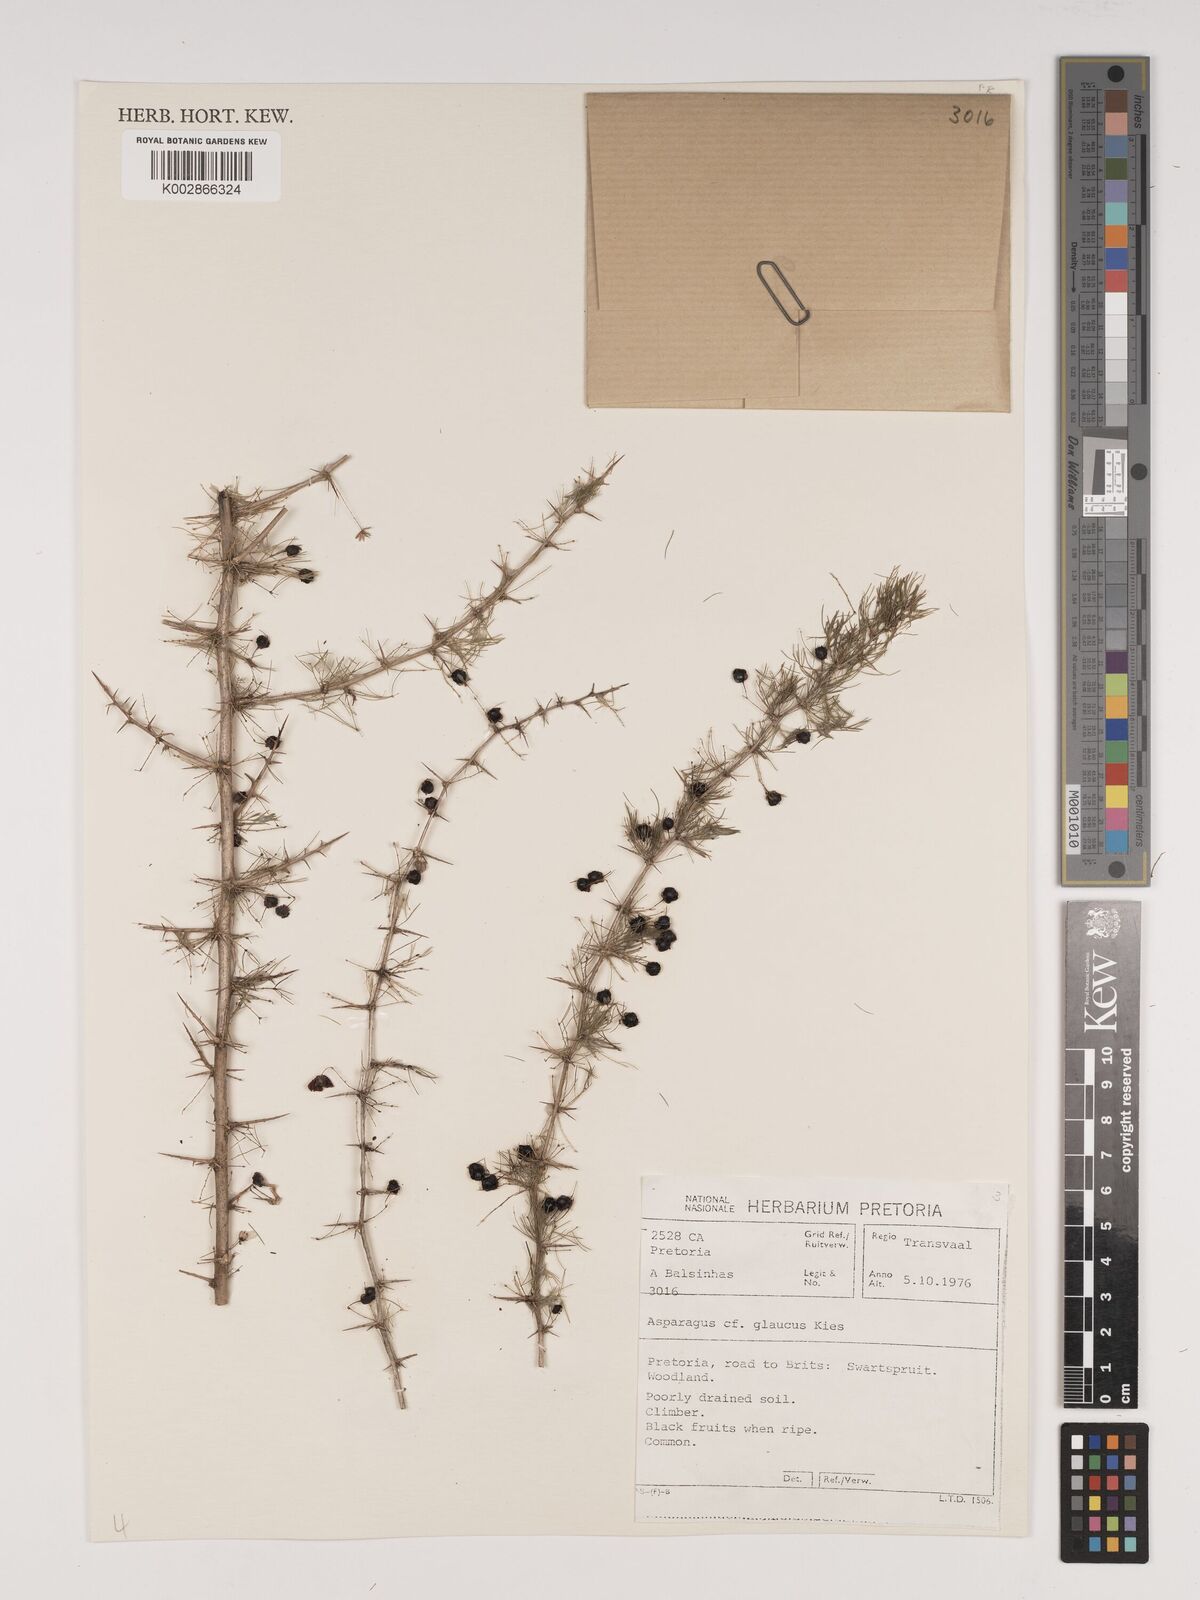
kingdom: Plantae
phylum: Tracheophyta
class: Liliopsida
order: Asparagales
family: Asparagaceae
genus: Asparagus
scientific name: Asparagus glaucus
